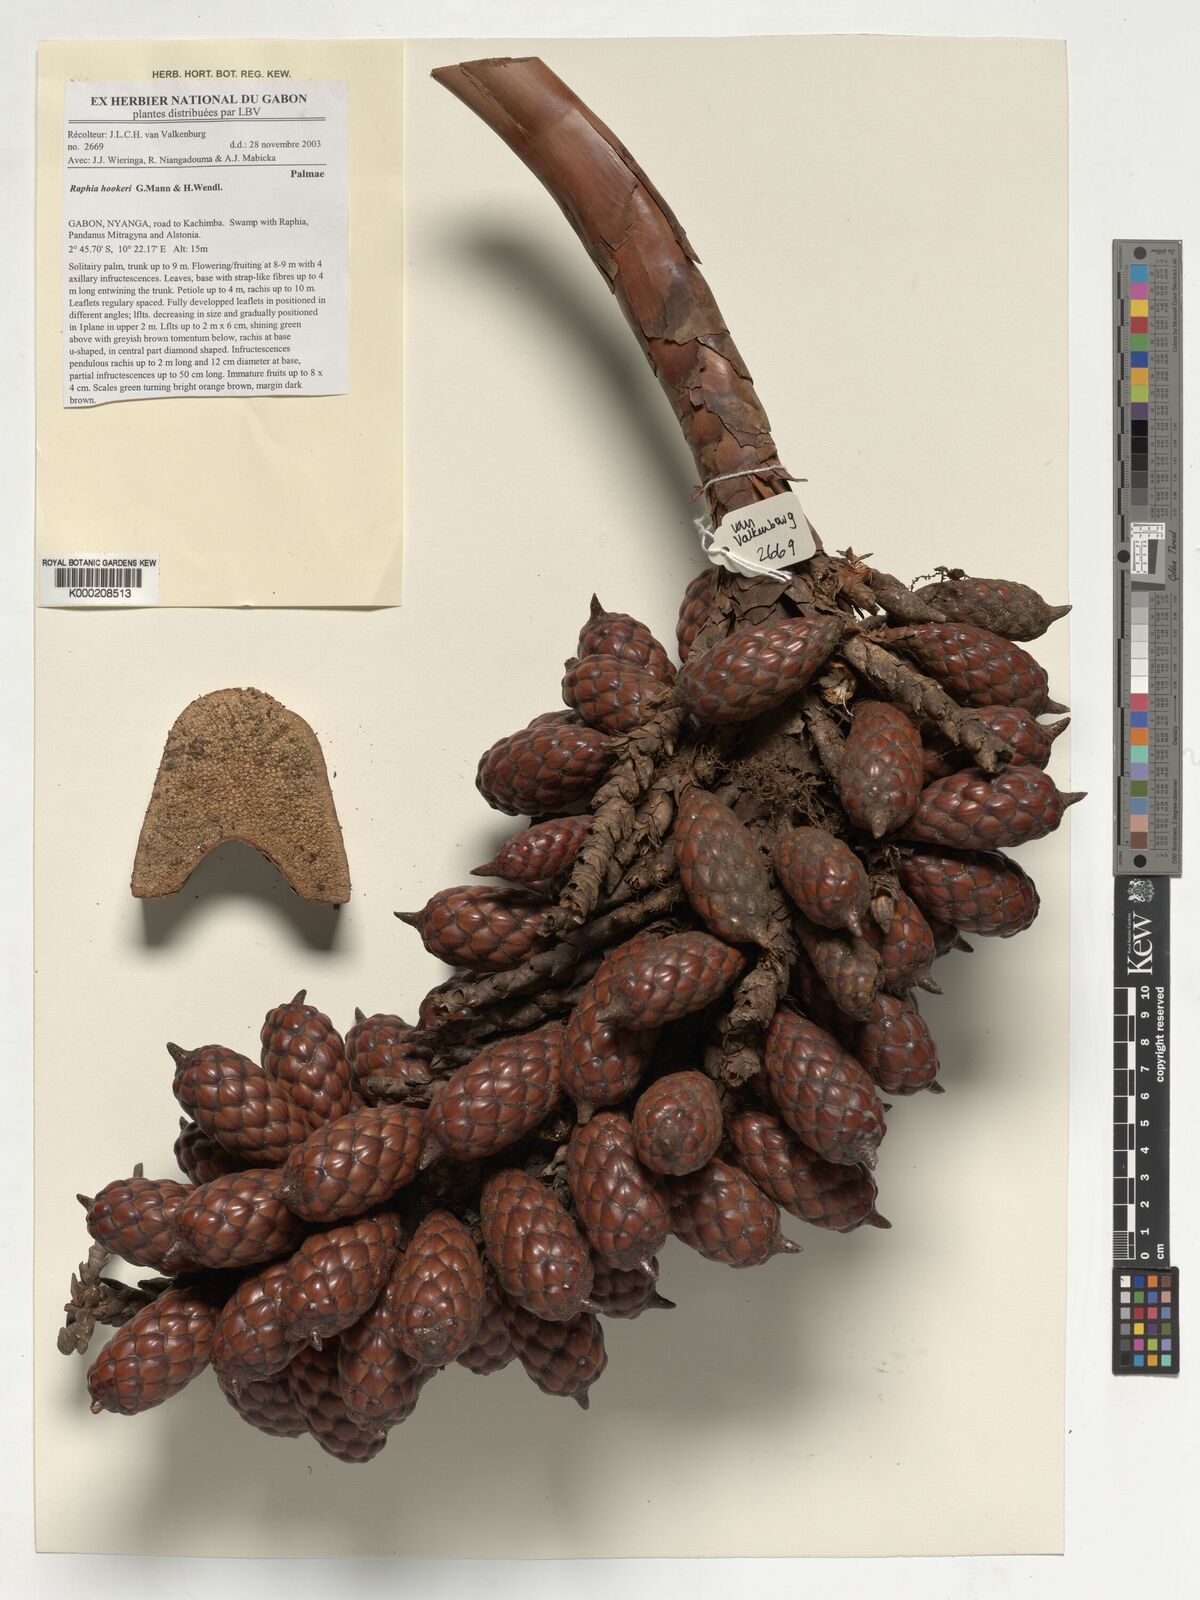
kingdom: Plantae
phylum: Tracheophyta
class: Liliopsida
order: Arecales
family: Arecaceae
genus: Raphia
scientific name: Raphia hookeri
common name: Wine palm
